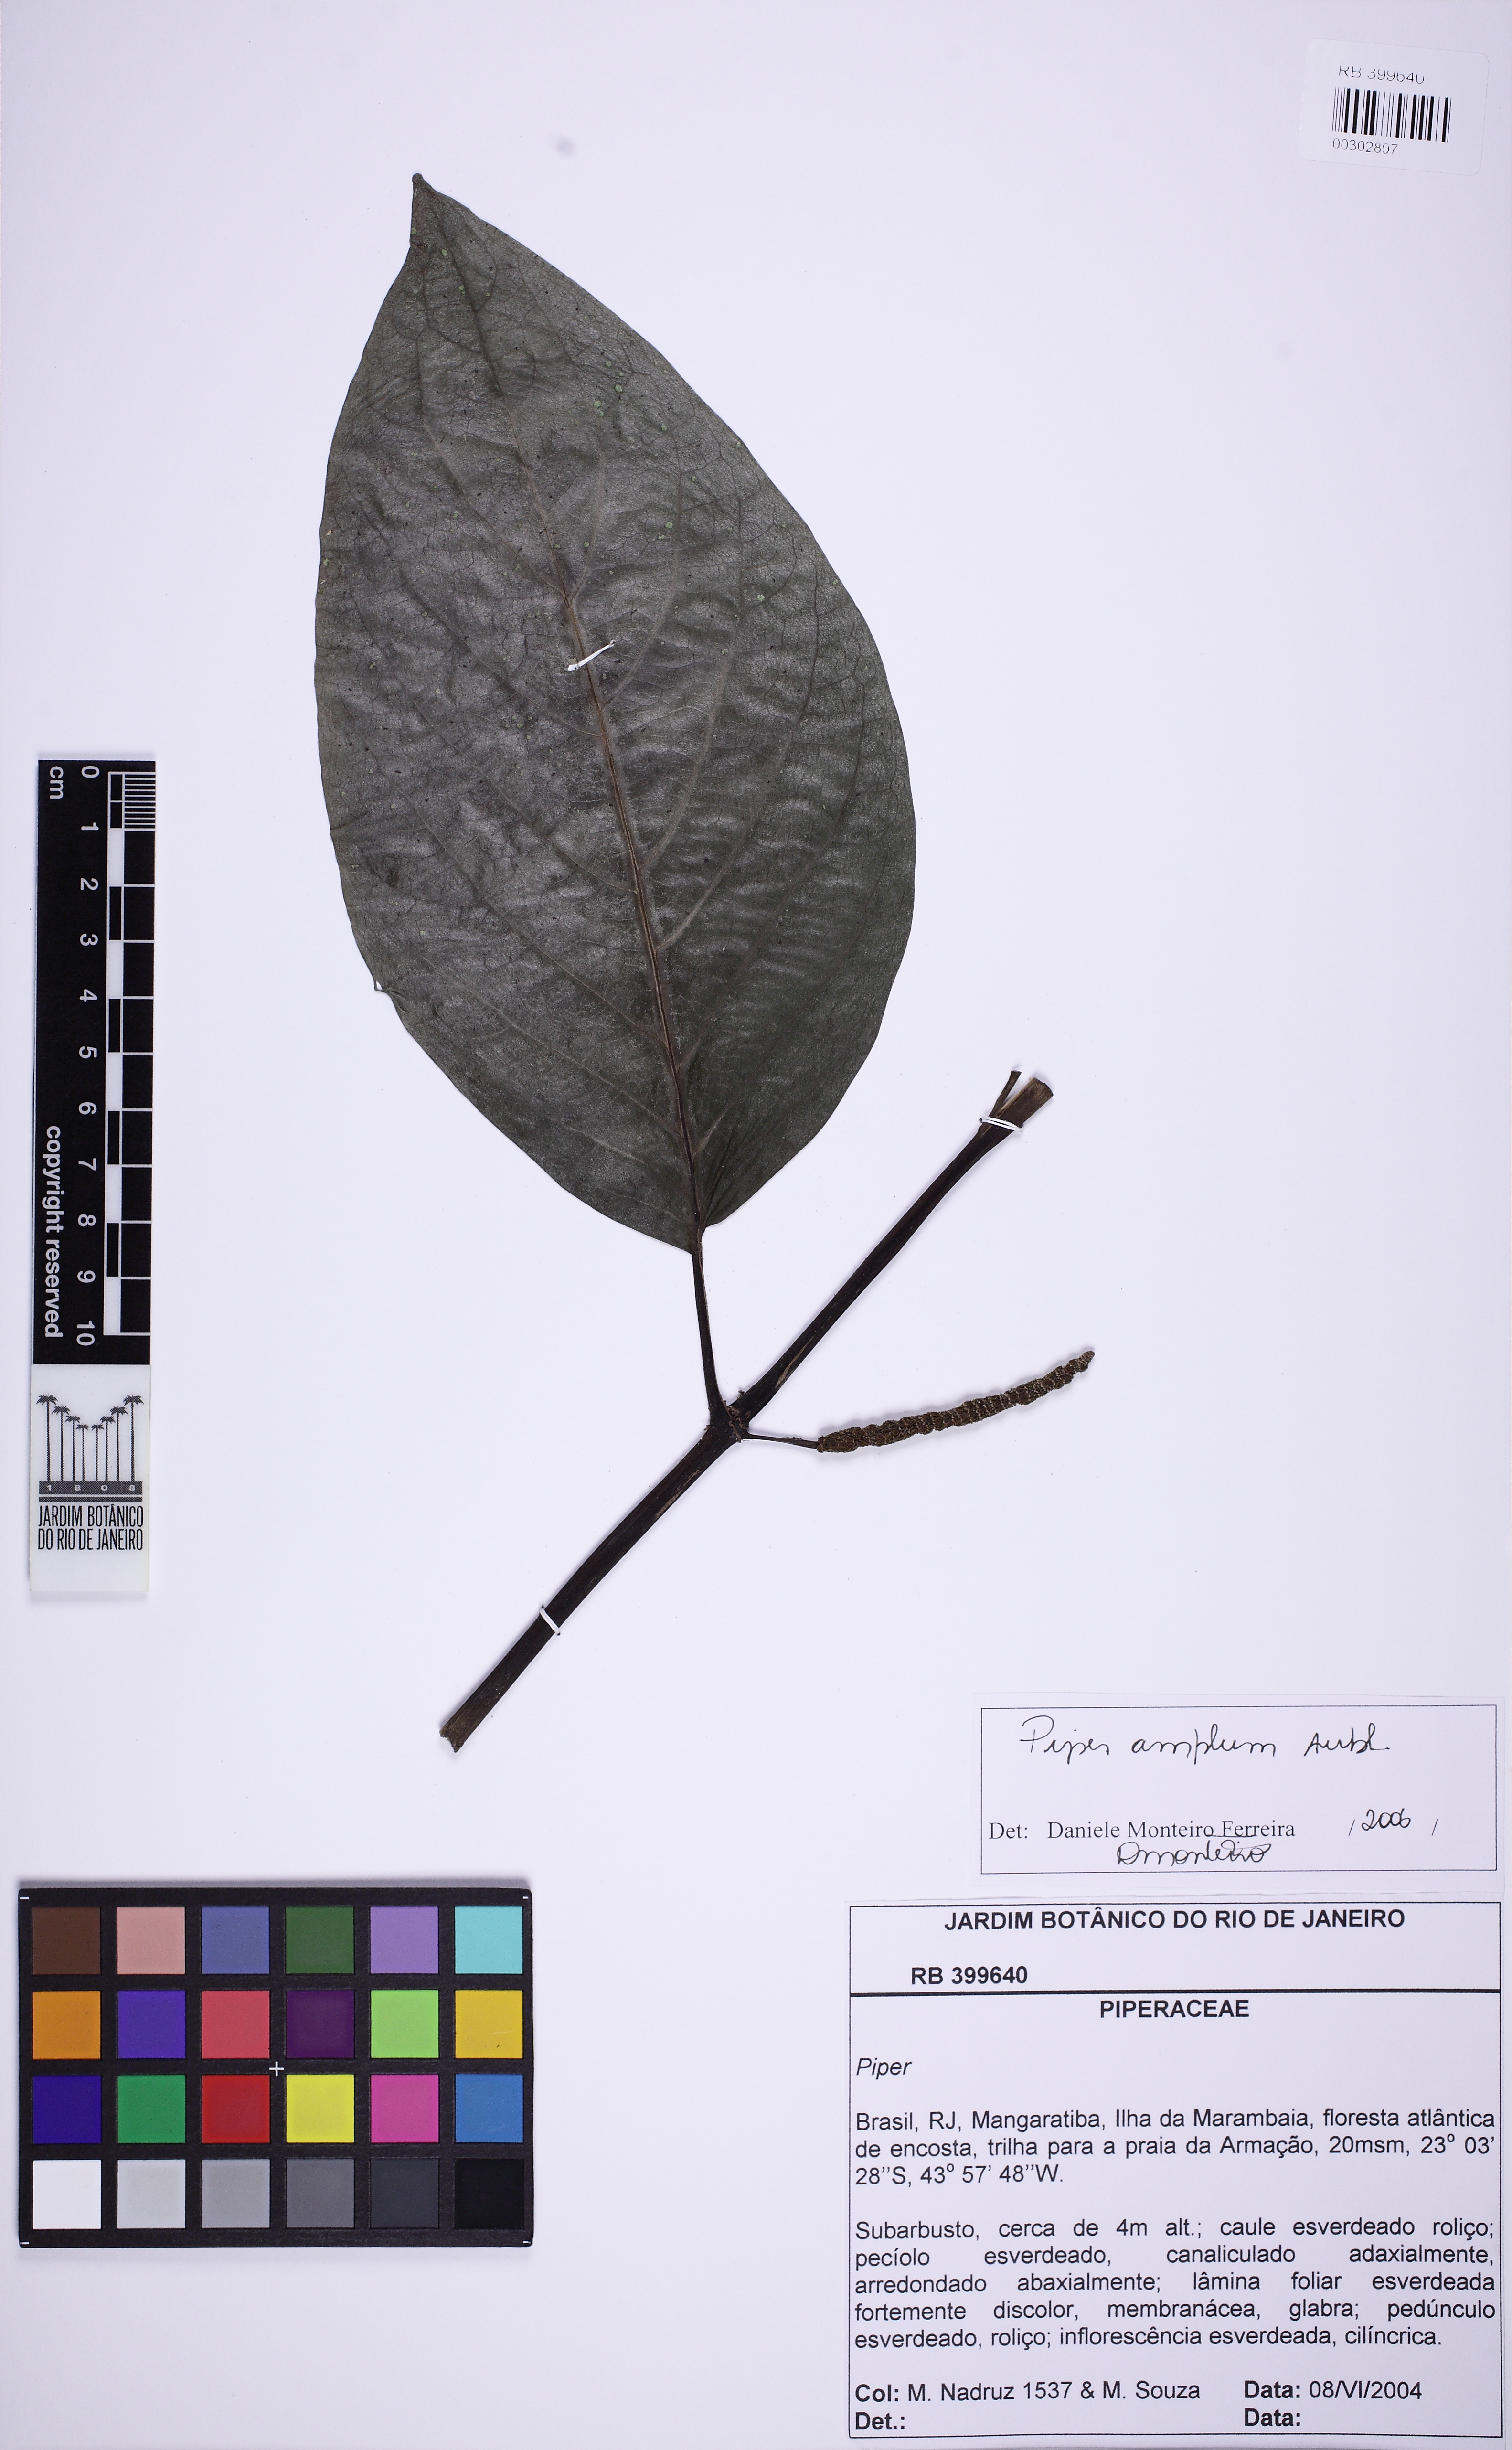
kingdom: Plantae
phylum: Tracheophyta
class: Magnoliopsida
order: Piperales
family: Piperaceae
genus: Piper
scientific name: Piper fluminense
